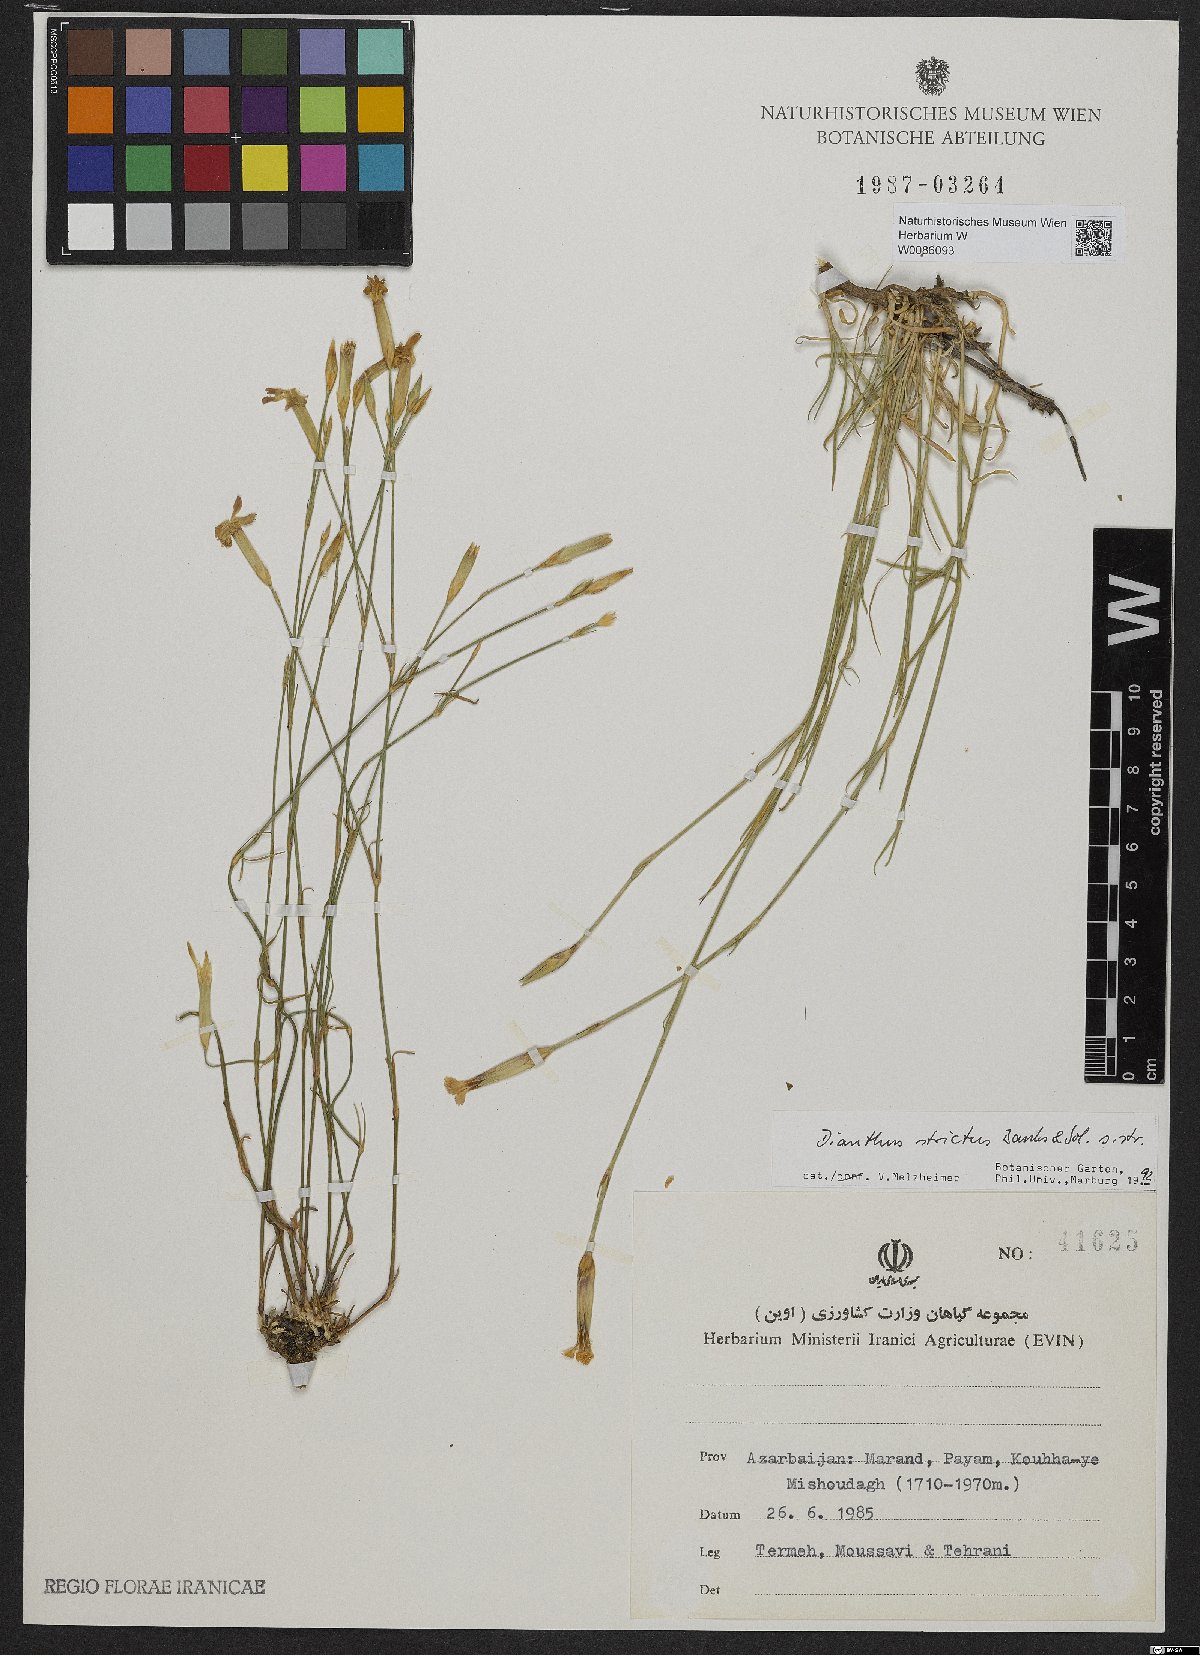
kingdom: Plantae
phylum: Tracheophyta
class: Magnoliopsida
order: Caryophyllales
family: Caryophyllaceae
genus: Dianthus
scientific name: Dianthus strictus
